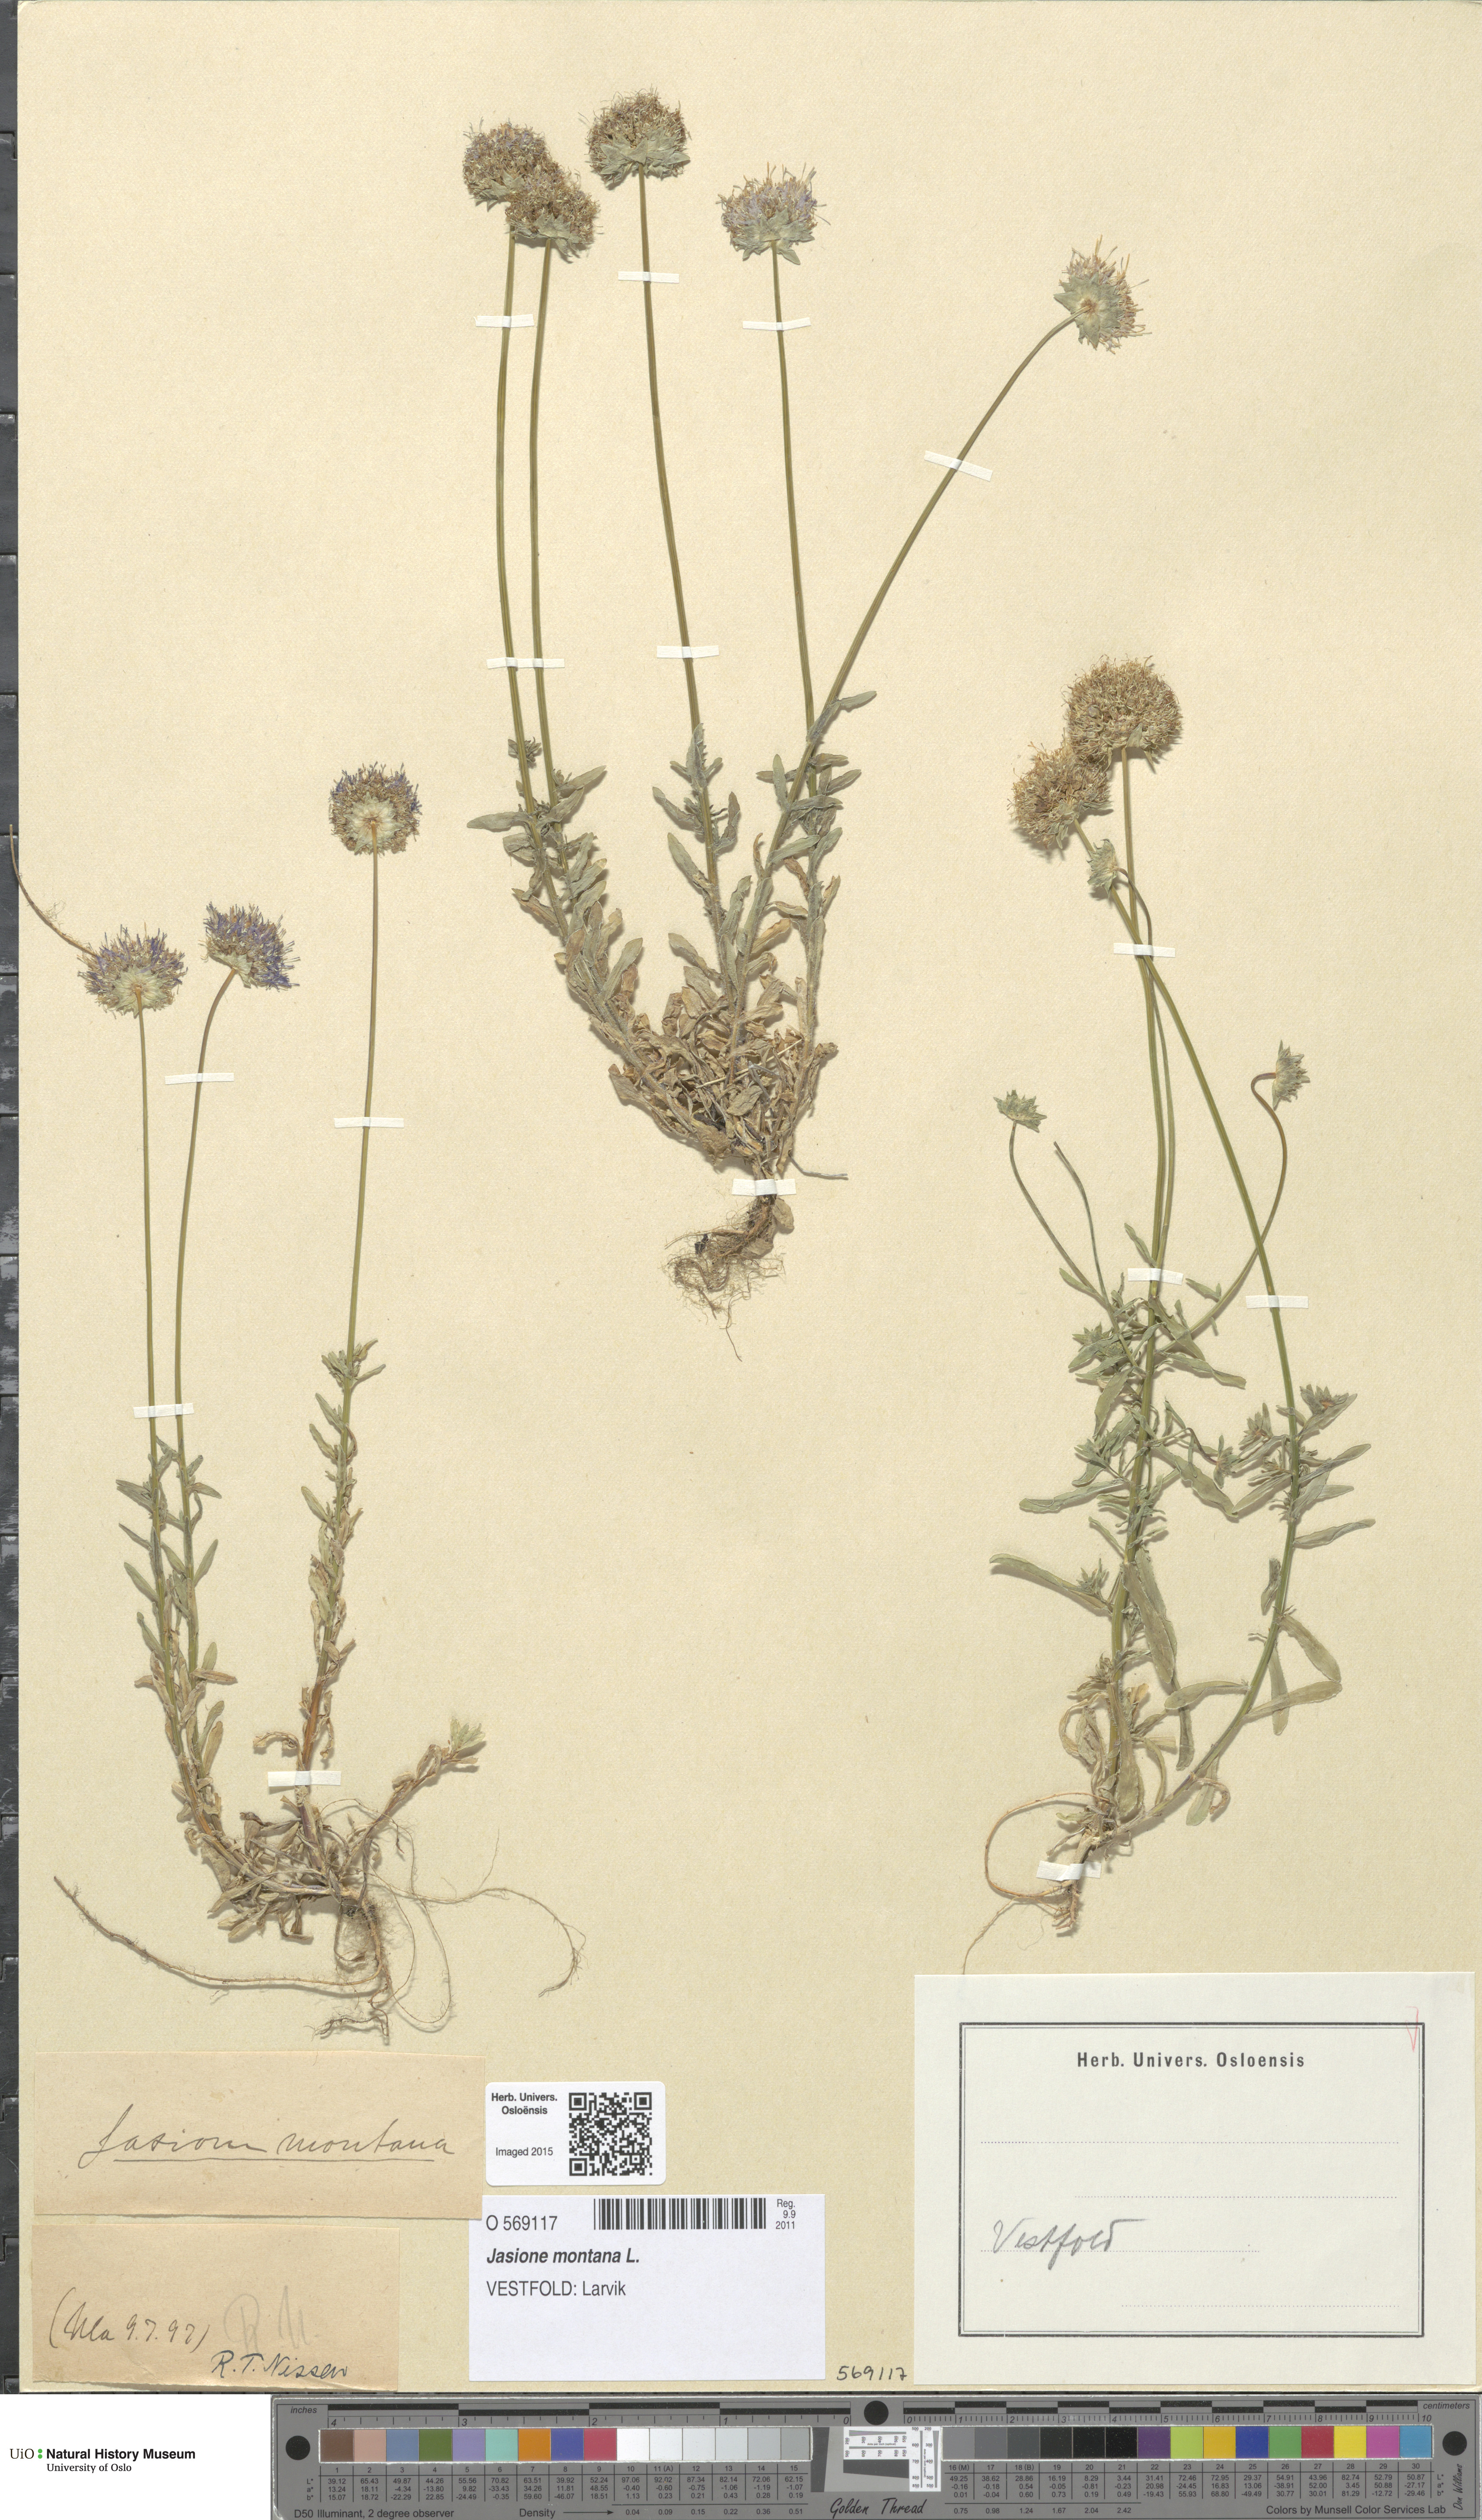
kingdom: Plantae
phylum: Tracheophyta
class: Magnoliopsida
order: Asterales
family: Campanulaceae
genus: Jasione
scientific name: Jasione montana
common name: Sheep's-bit
